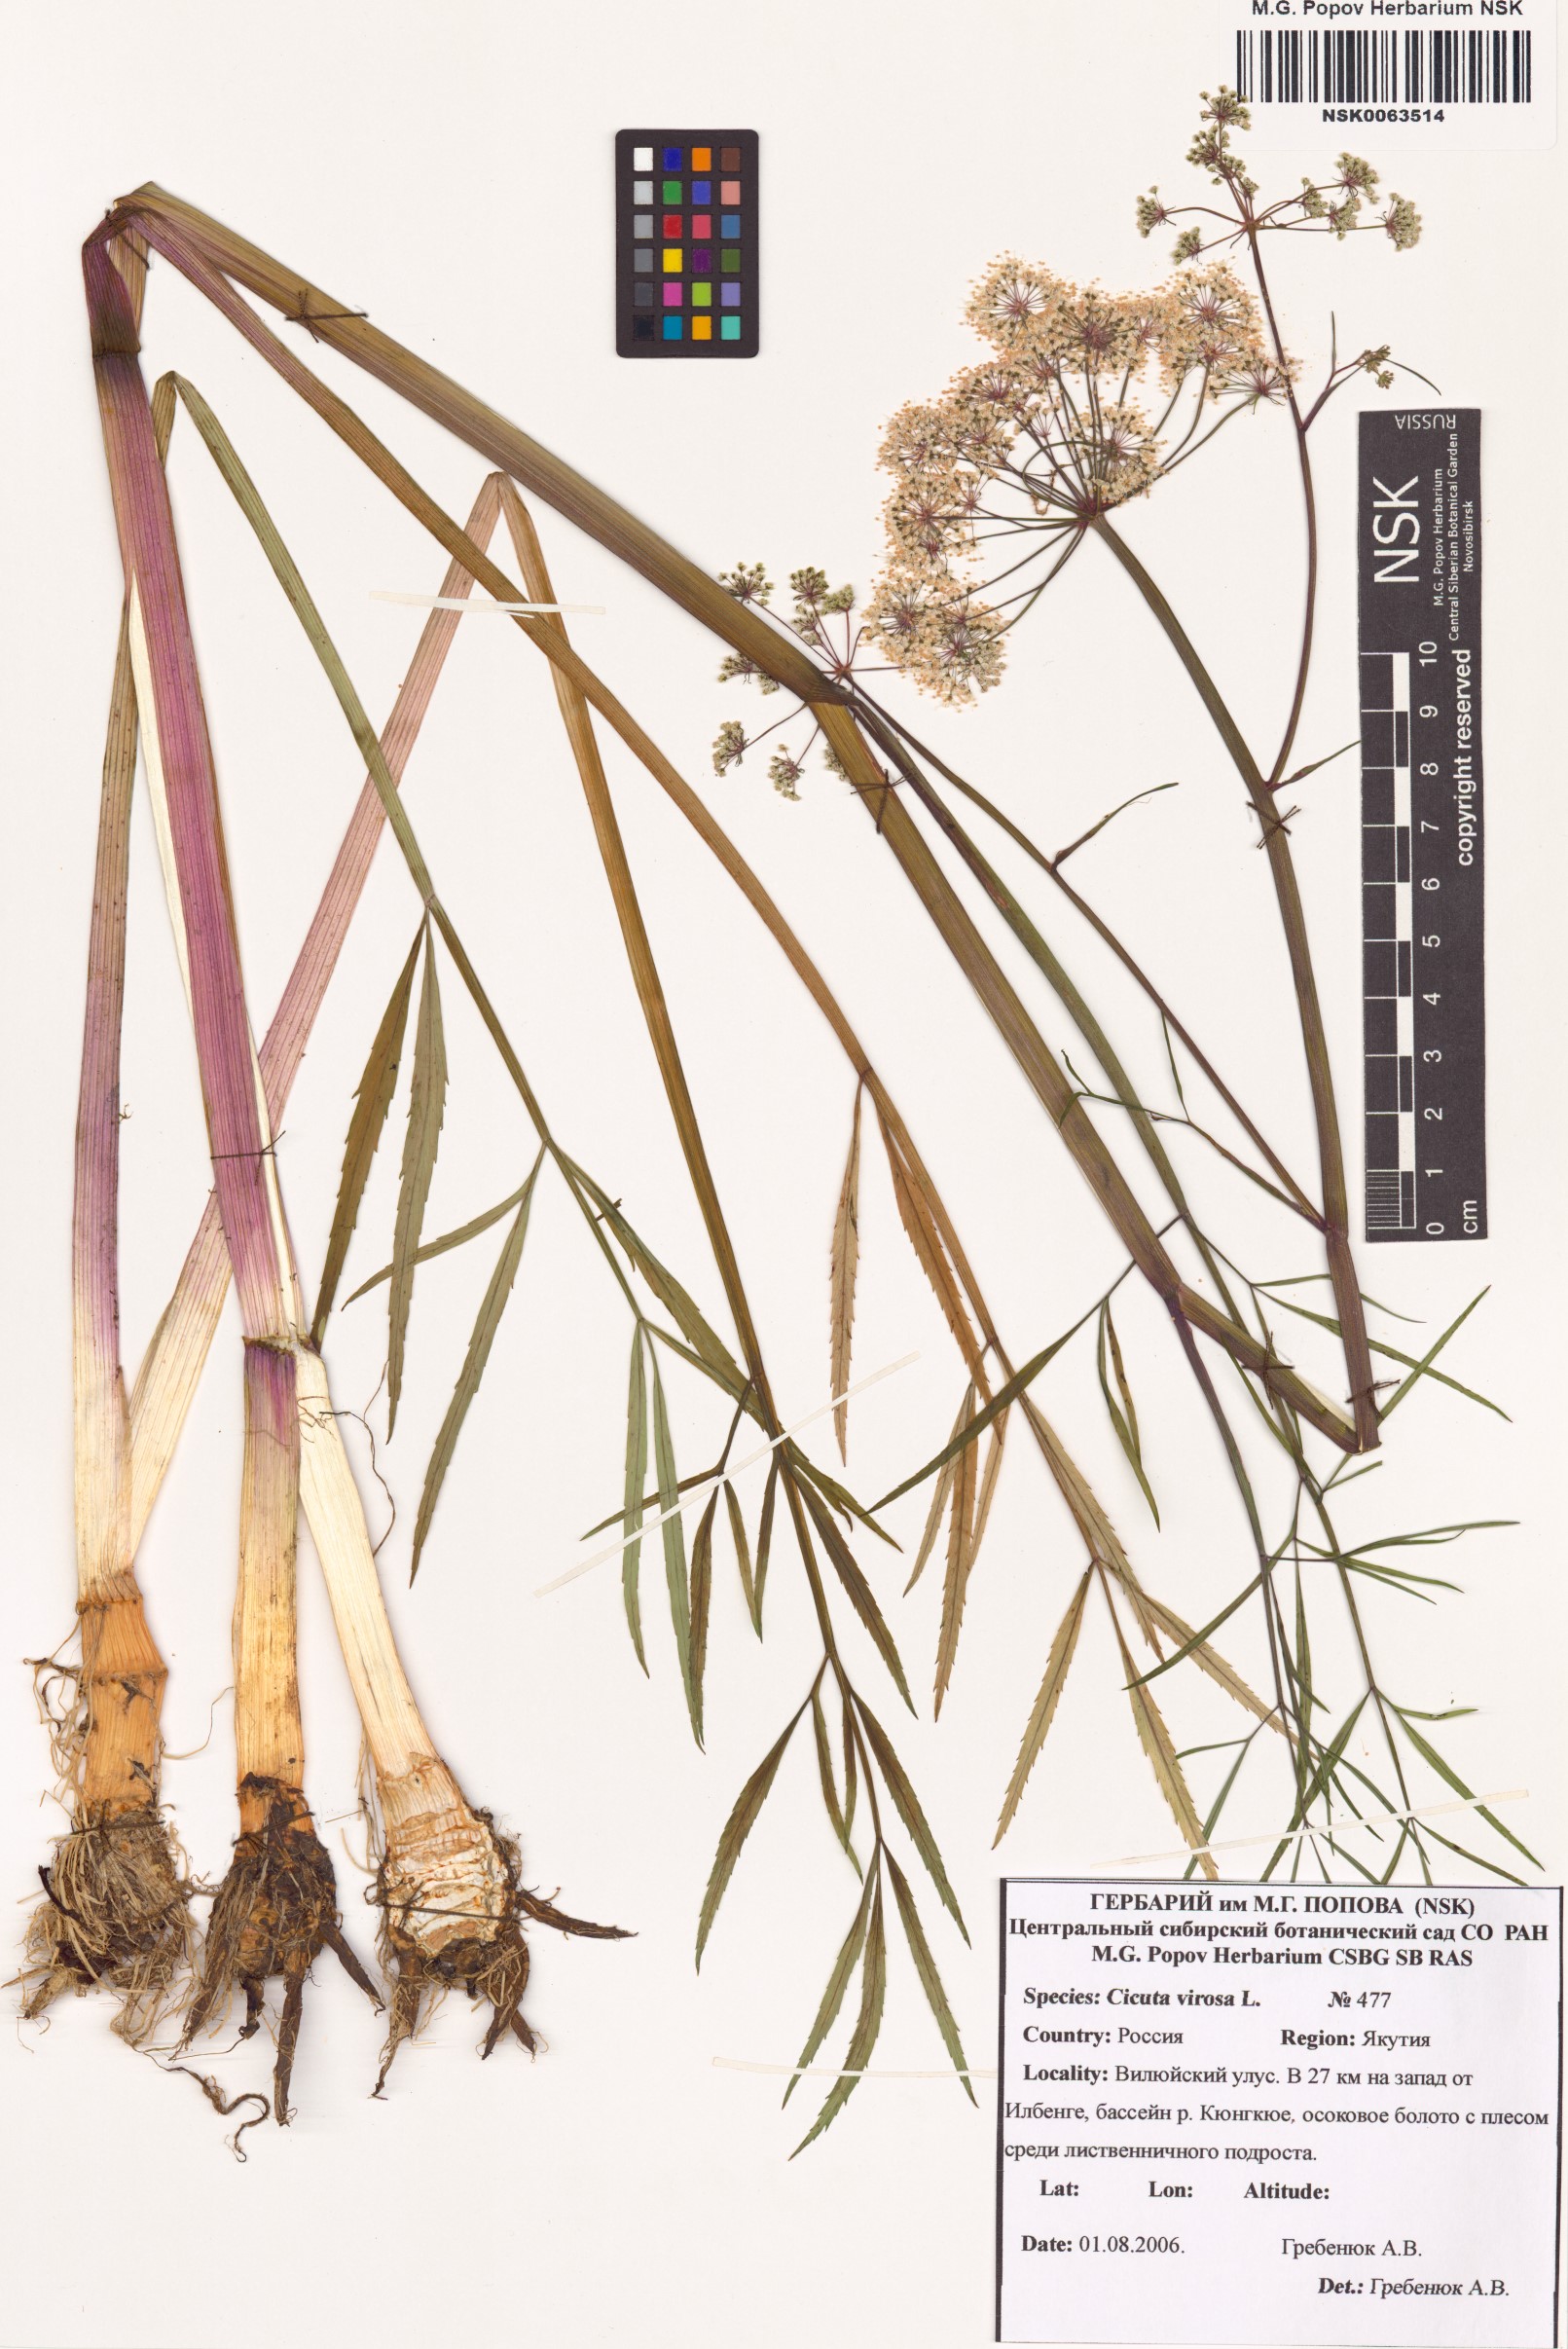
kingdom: Plantae
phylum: Tracheophyta
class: Magnoliopsida
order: Apiales
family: Apiaceae
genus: Cicuta
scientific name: Cicuta virosa
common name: Cowbane
